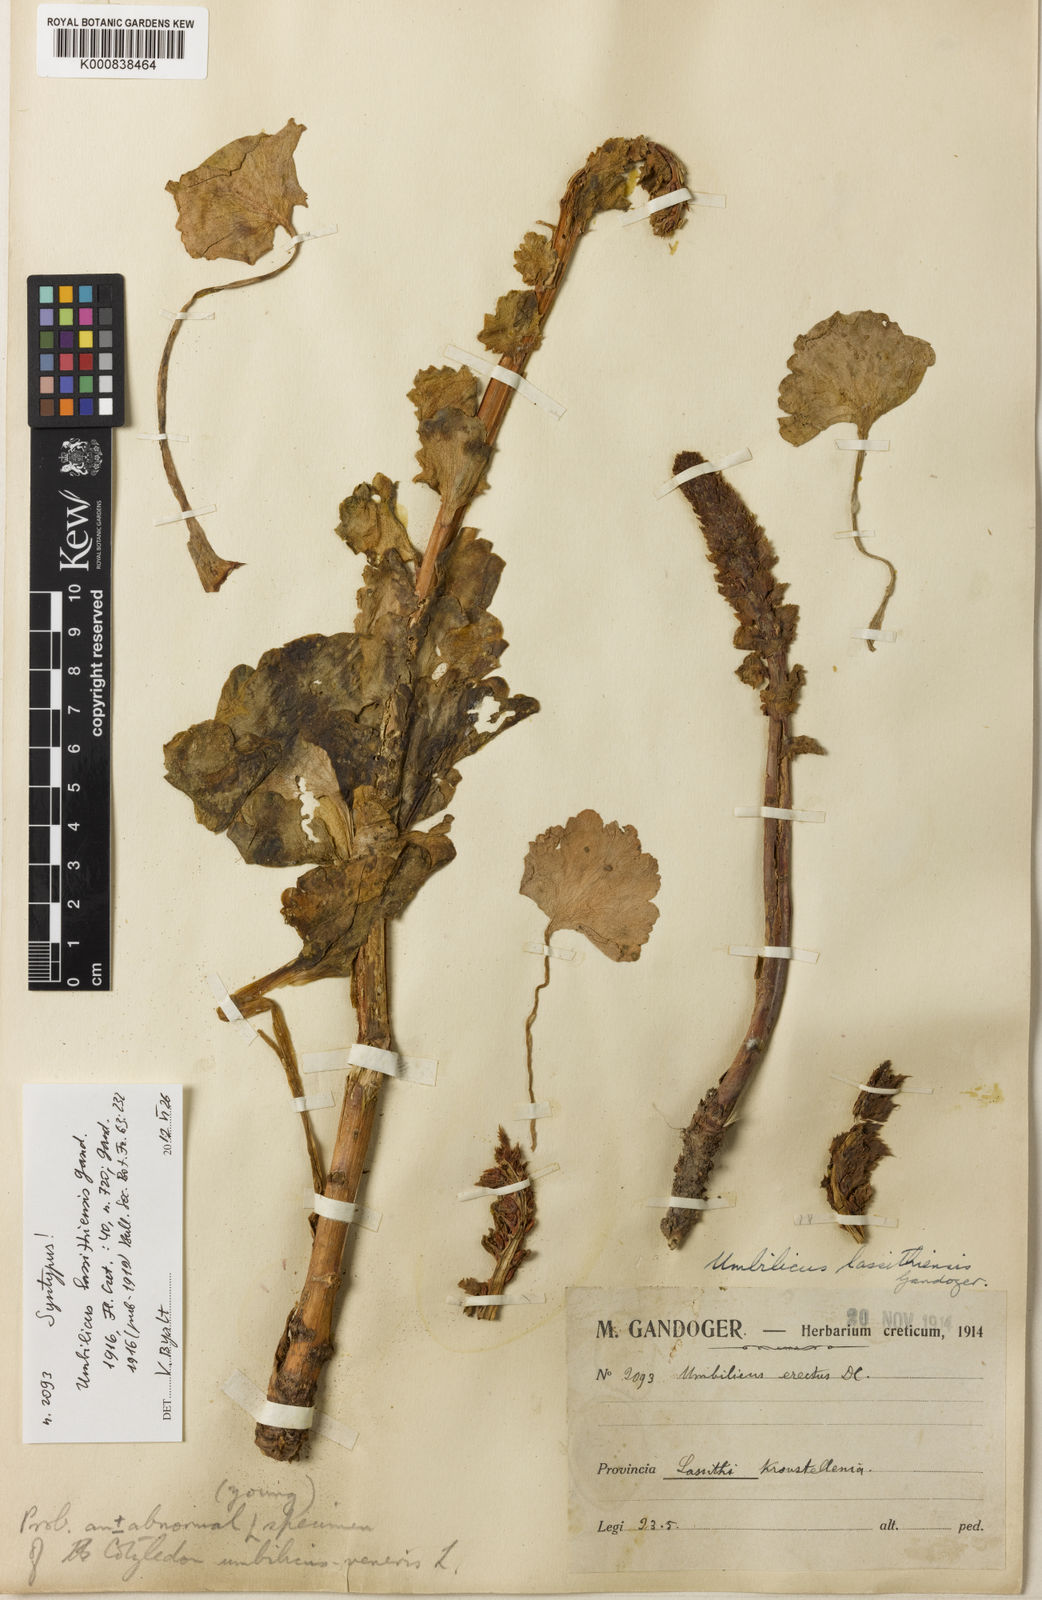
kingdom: Plantae
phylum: Tracheophyta
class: Magnoliopsida
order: Saxifragales
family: Crassulaceae
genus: Umbilicus
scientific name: Umbilicus luteus
